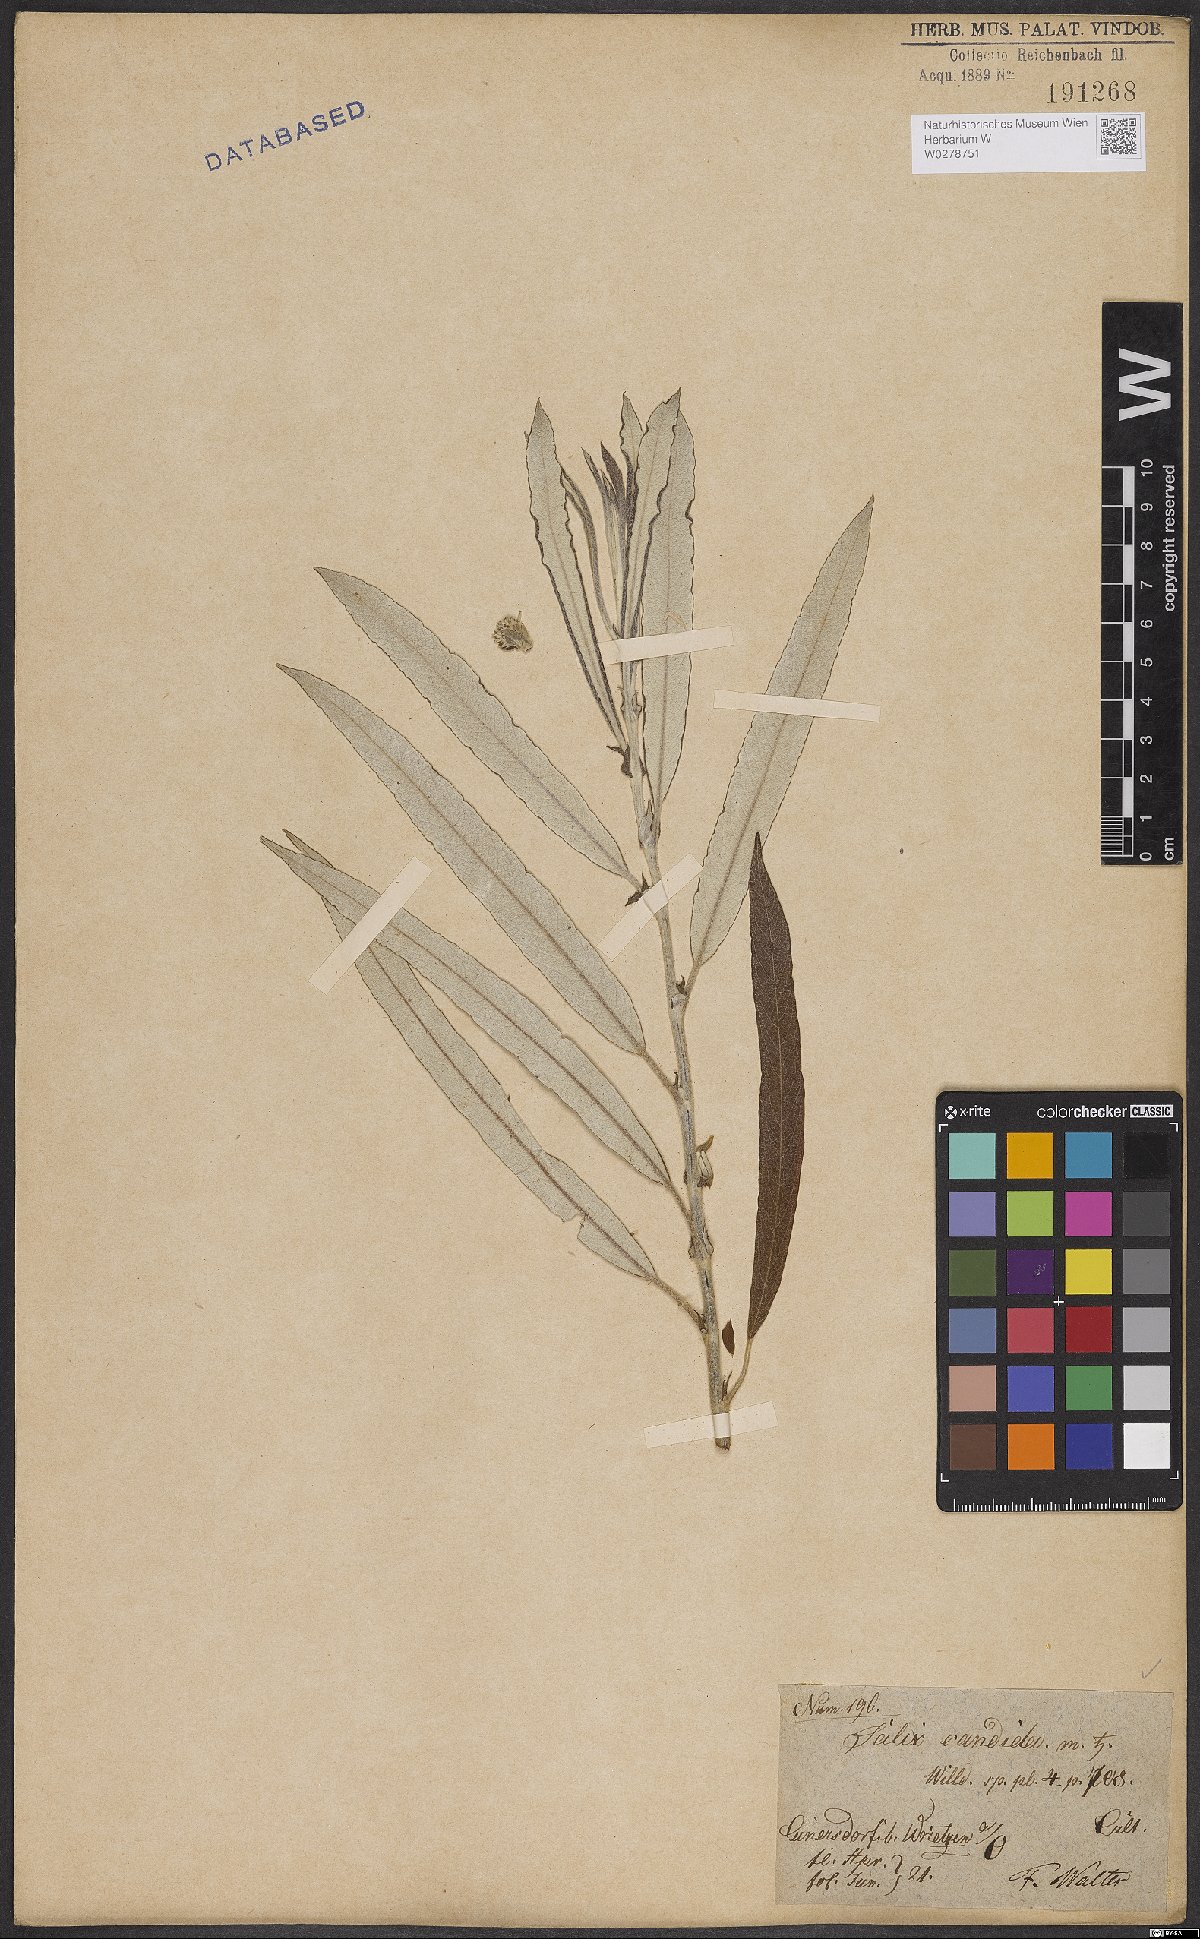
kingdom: Plantae
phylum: Tracheophyta
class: Magnoliopsida
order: Malpighiales
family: Salicaceae
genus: Salix
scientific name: Salix candida
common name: Hoary willow
